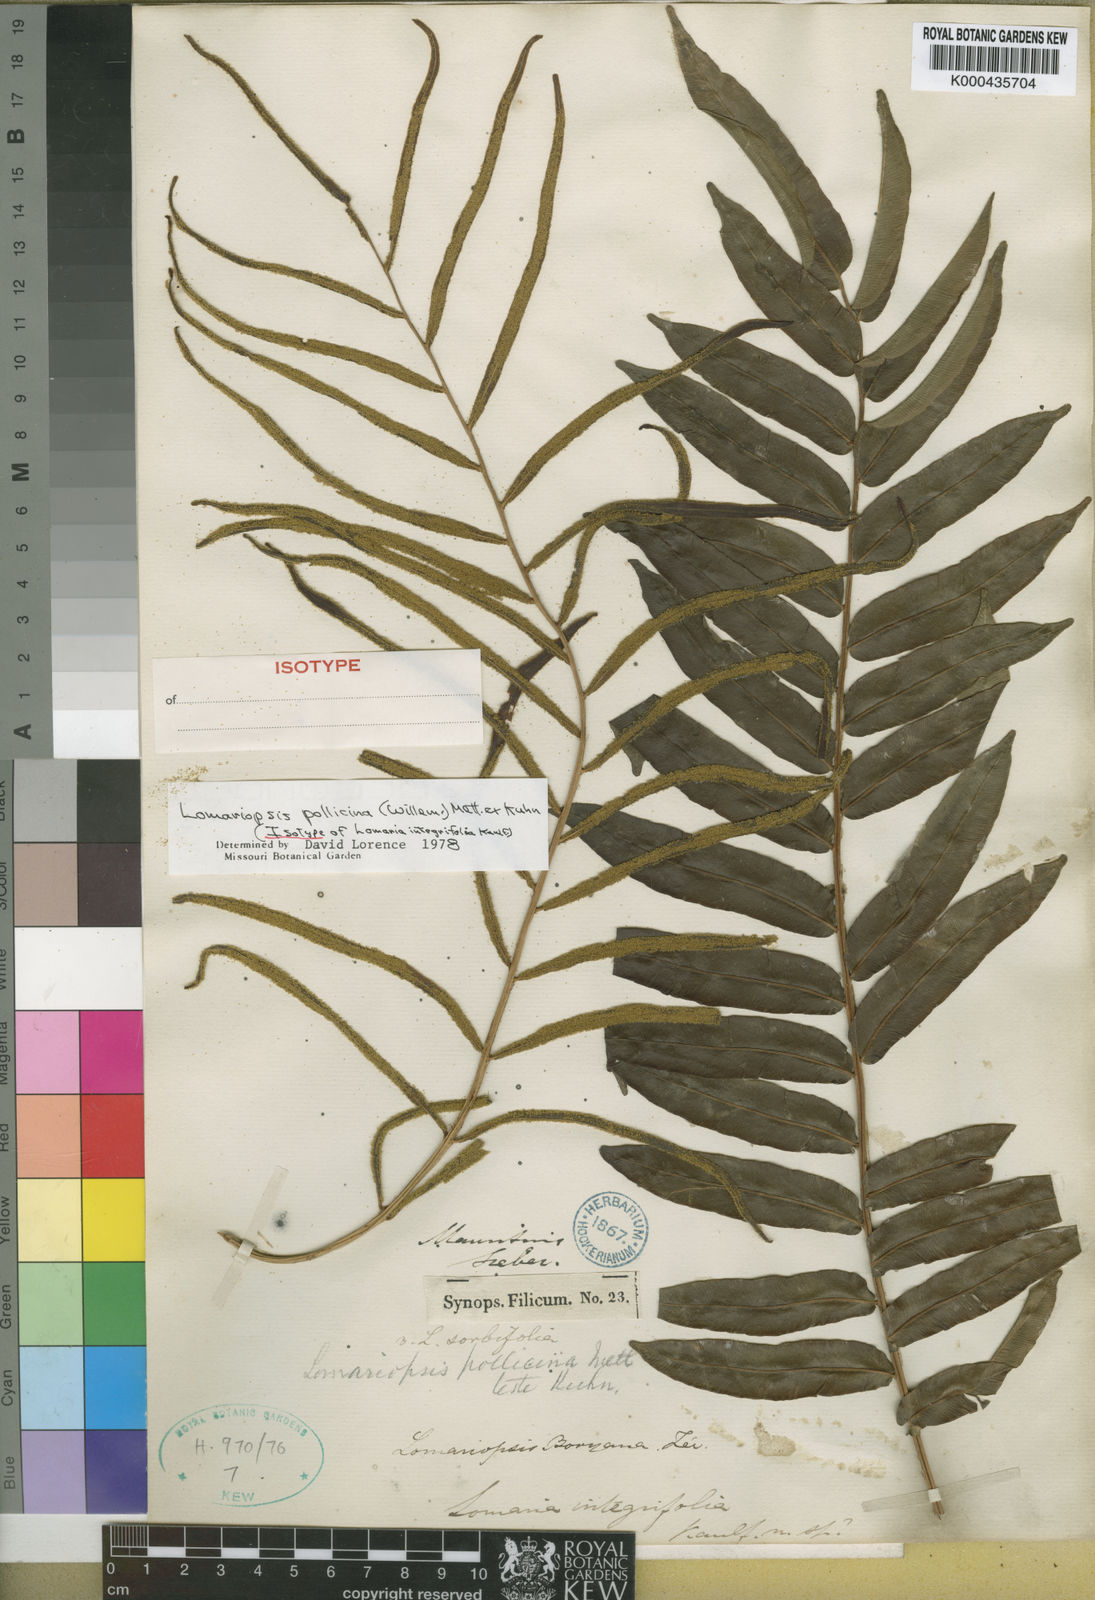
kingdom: Plantae
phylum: Tracheophyta
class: Polypodiopsida
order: Polypodiales
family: Lomariopsidaceae
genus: Lomariopsis
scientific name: Lomariopsis pollicina
